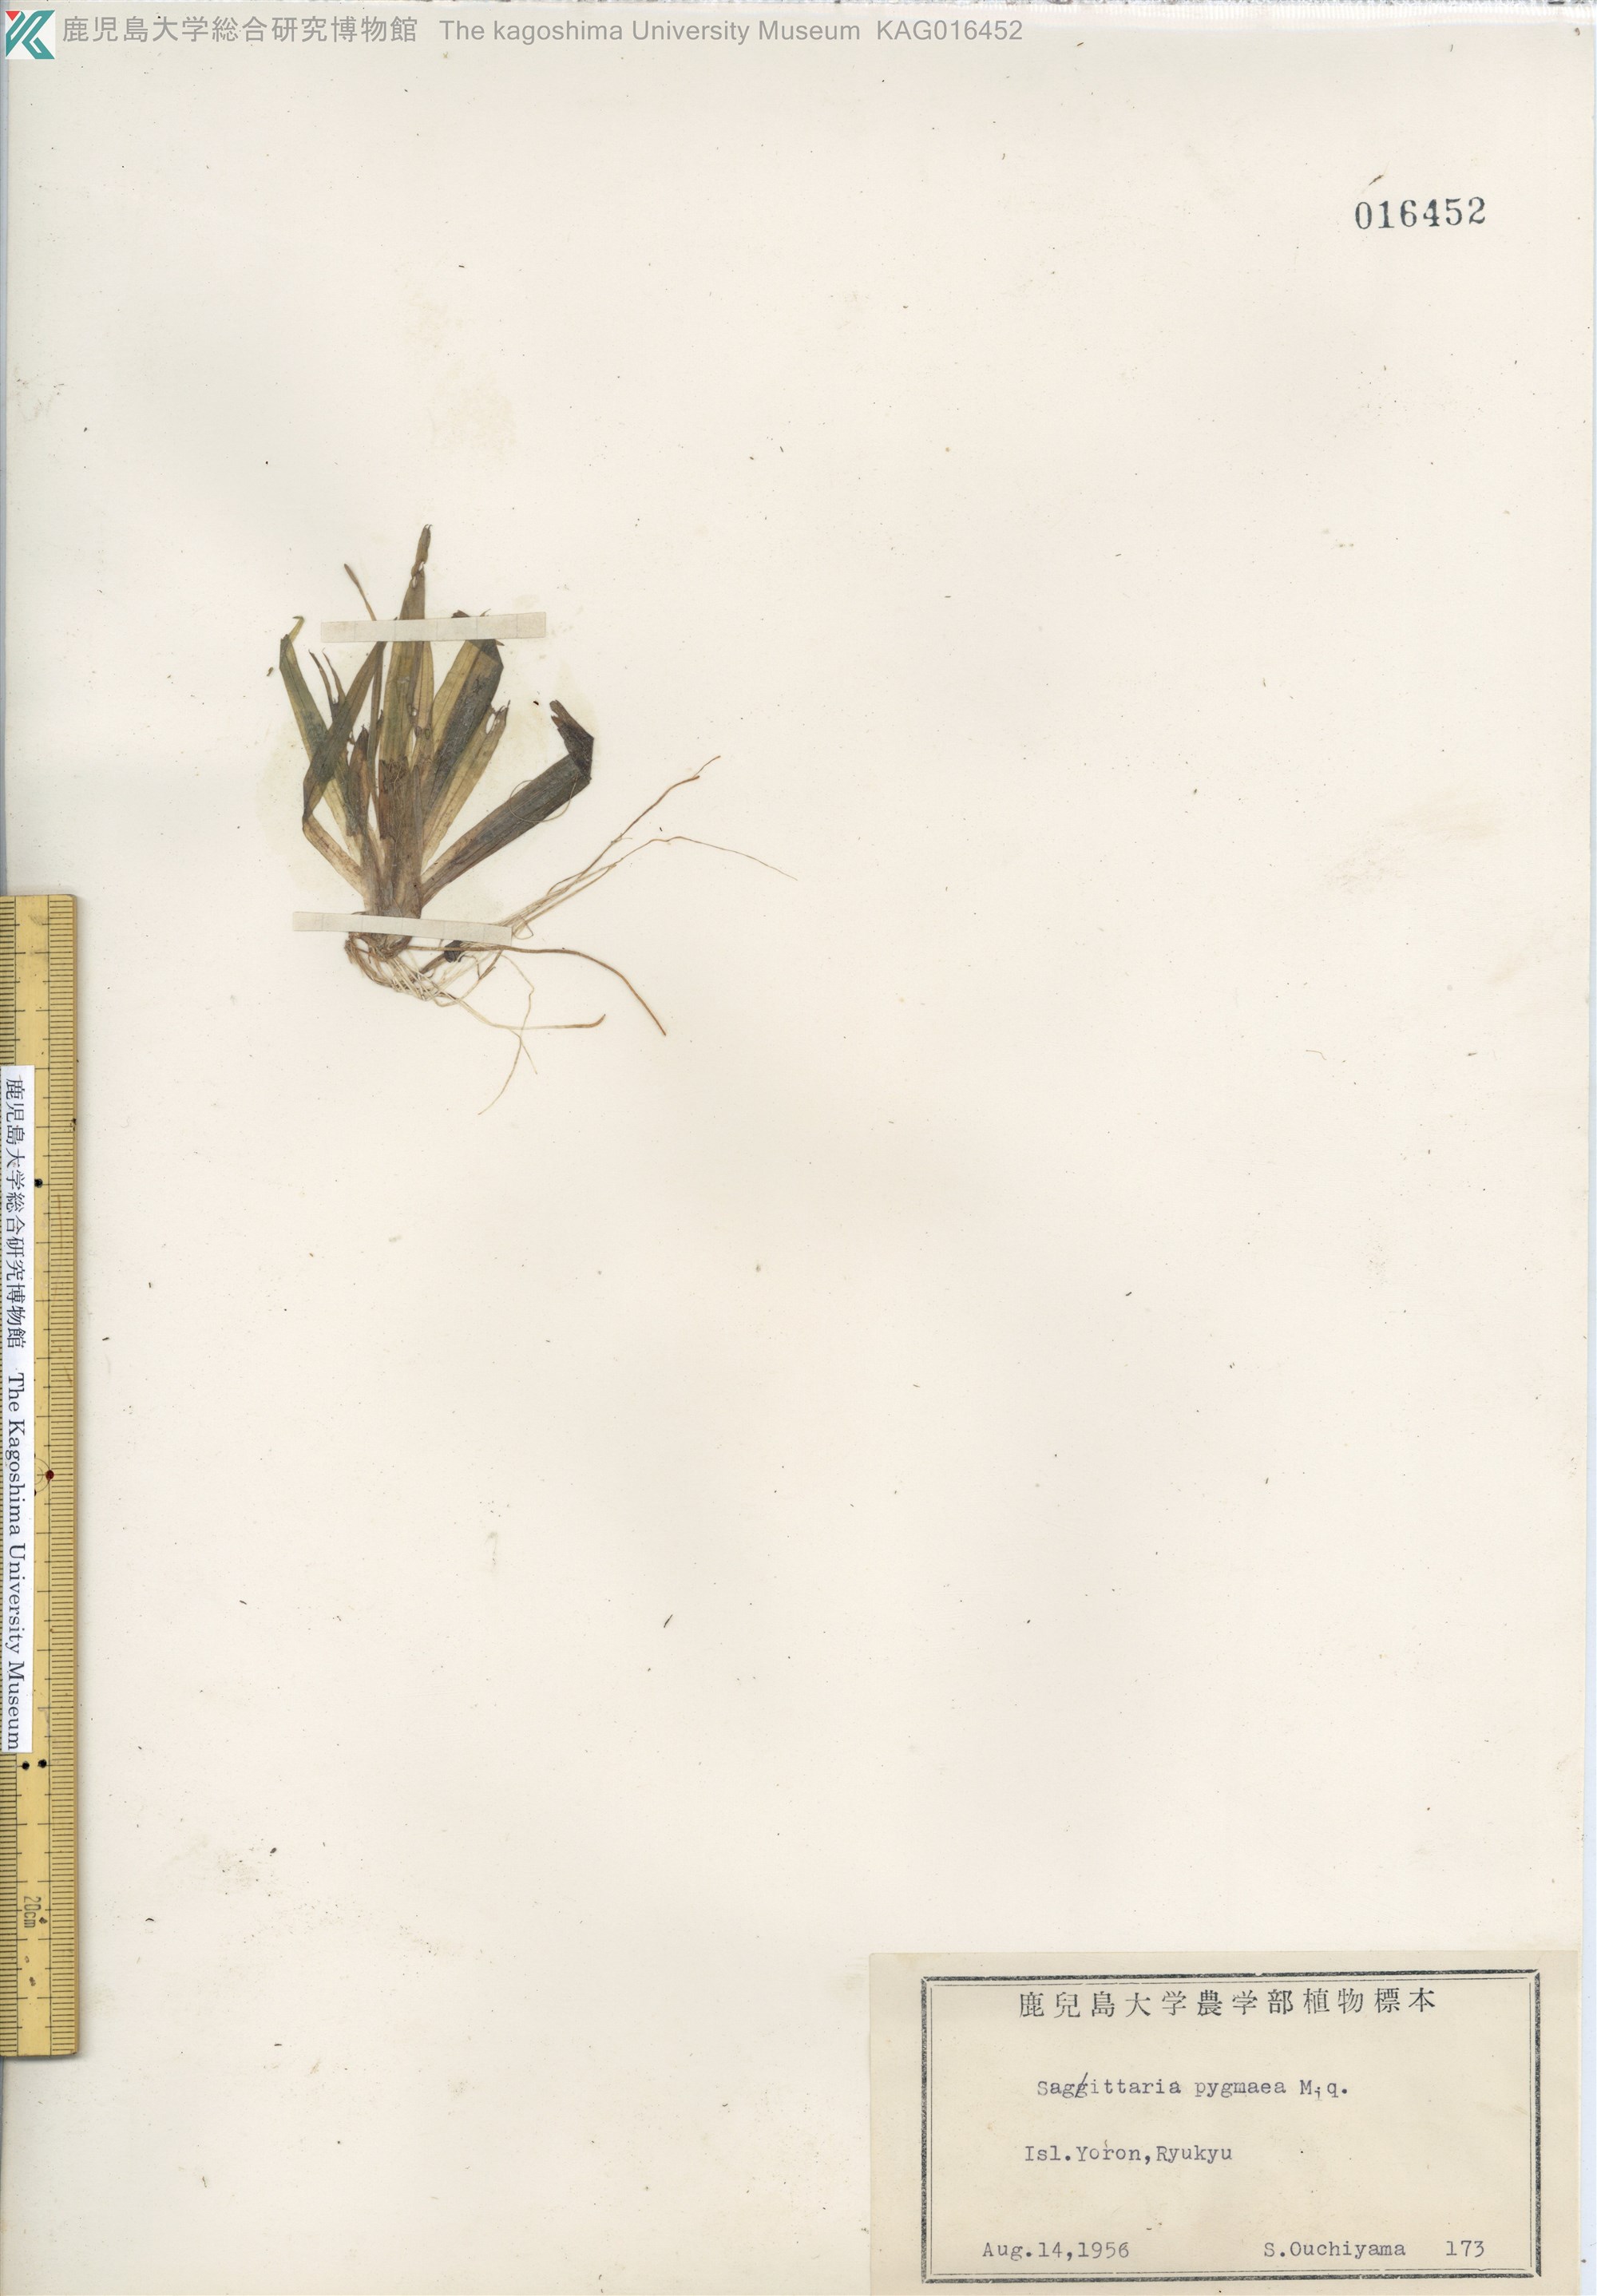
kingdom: Plantae
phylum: Tracheophyta
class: Liliopsida
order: Alismatales
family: Hydrocharitaceae
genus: Blyxa
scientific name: Blyxa echinosperma
